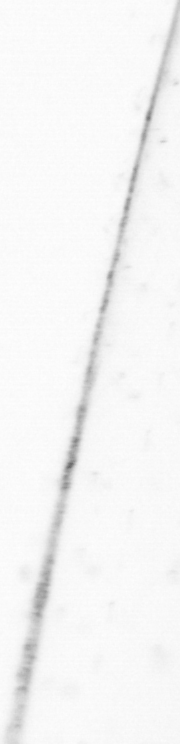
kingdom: Animalia
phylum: Chaetognatha
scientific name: Chaetognatha
